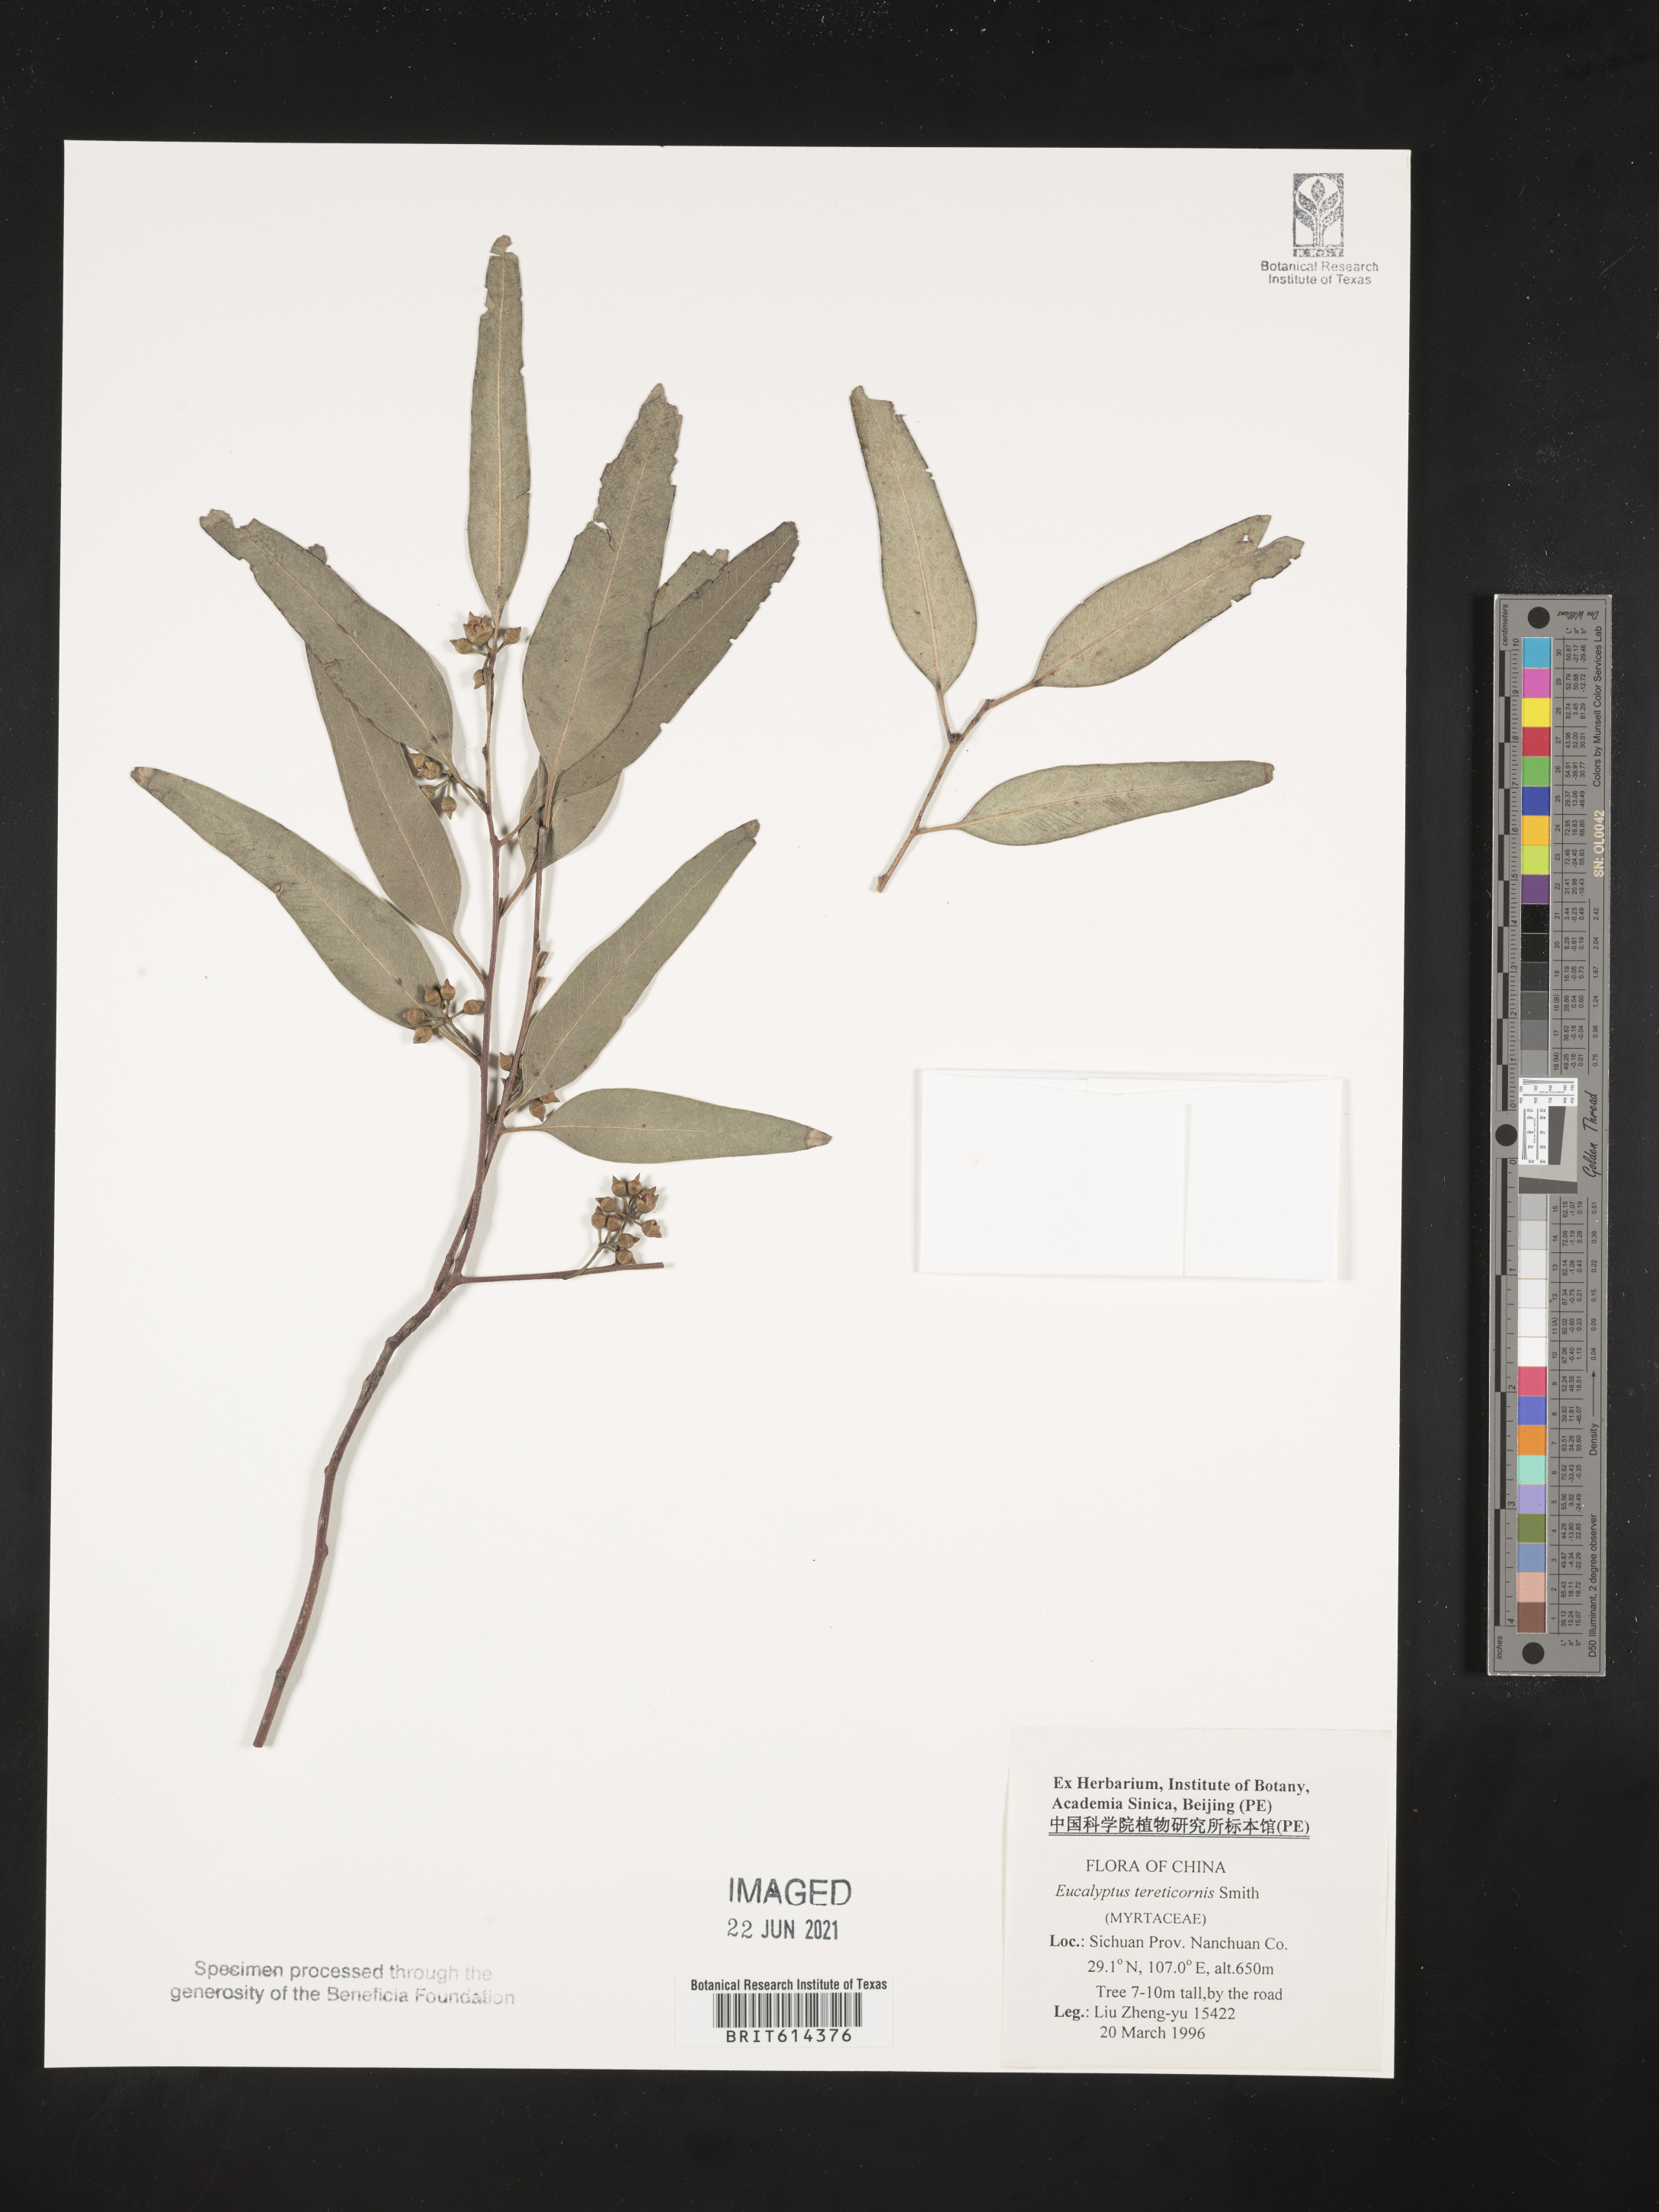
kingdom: Plantae
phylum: Tracheophyta
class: Magnoliopsida
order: Myrtales
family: Myrtaceae
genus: Eucalyptus
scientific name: Eucalyptus tereticornis
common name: Forest redgum
